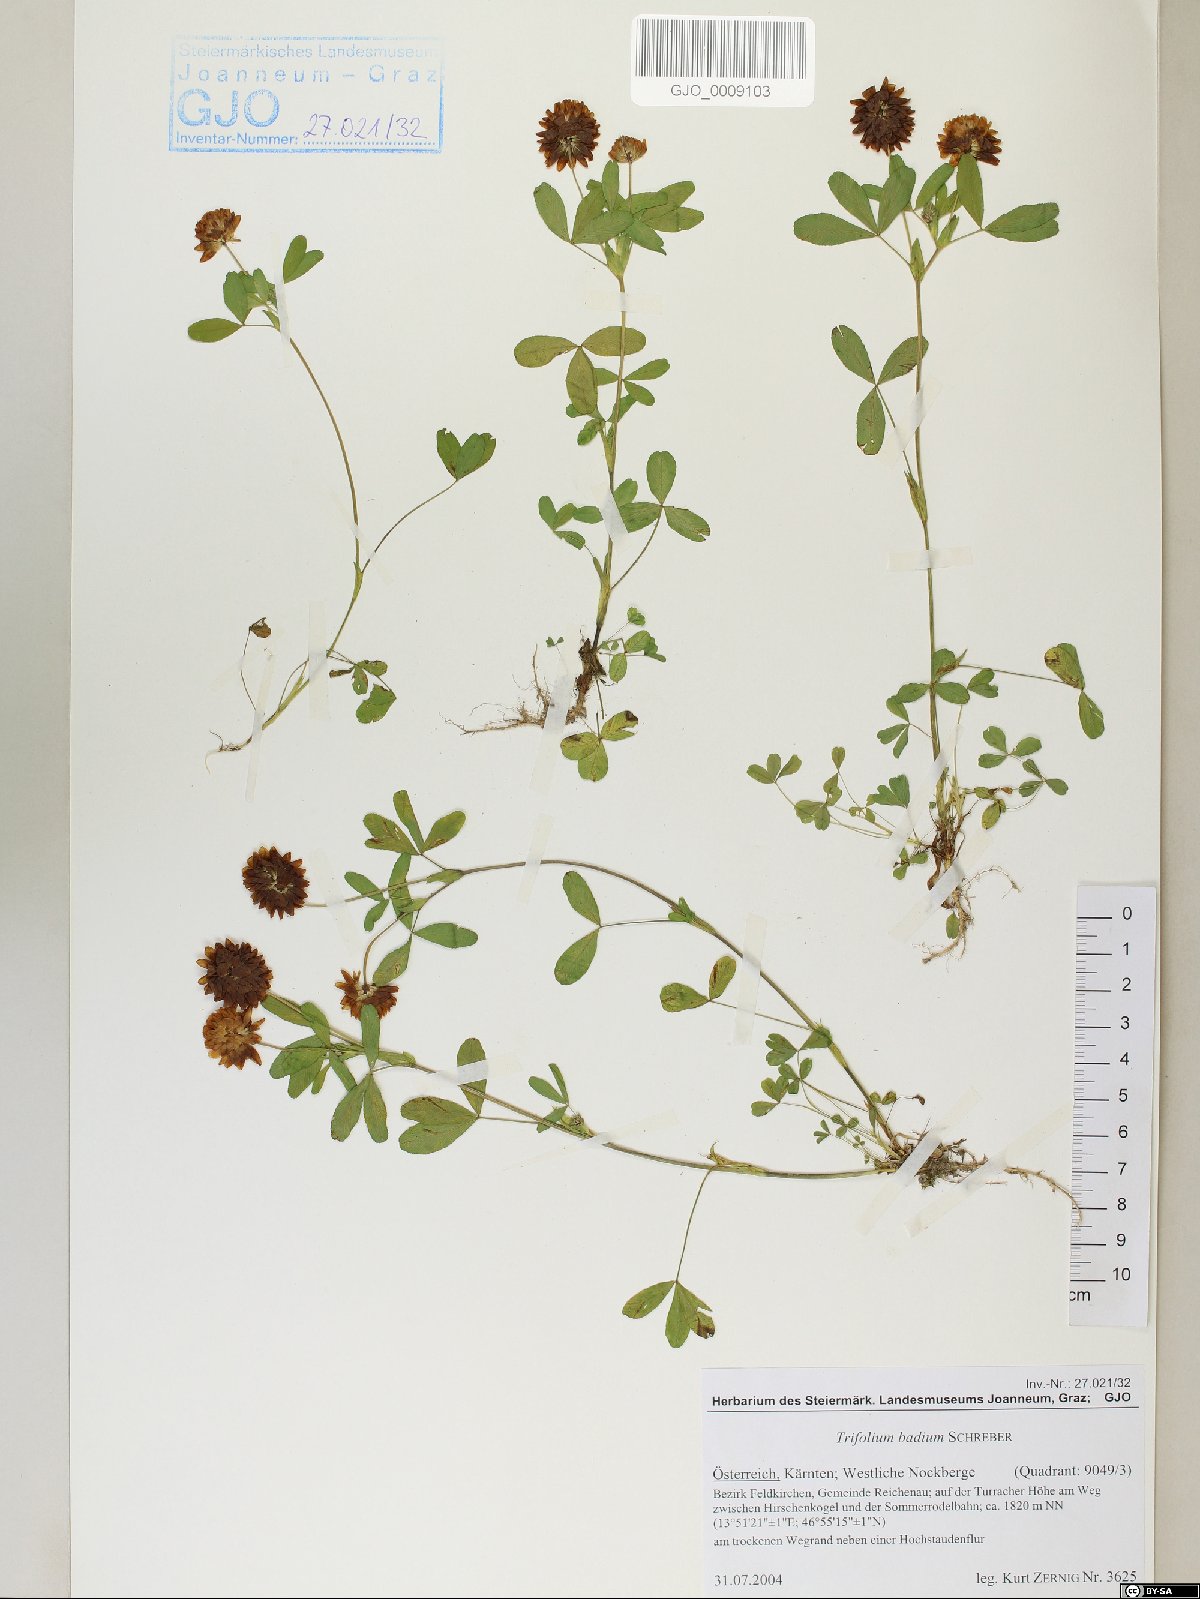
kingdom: Plantae
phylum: Tracheophyta
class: Magnoliopsida
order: Fabales
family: Fabaceae
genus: Trifolium
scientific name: Trifolium badium
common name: Brown clover
